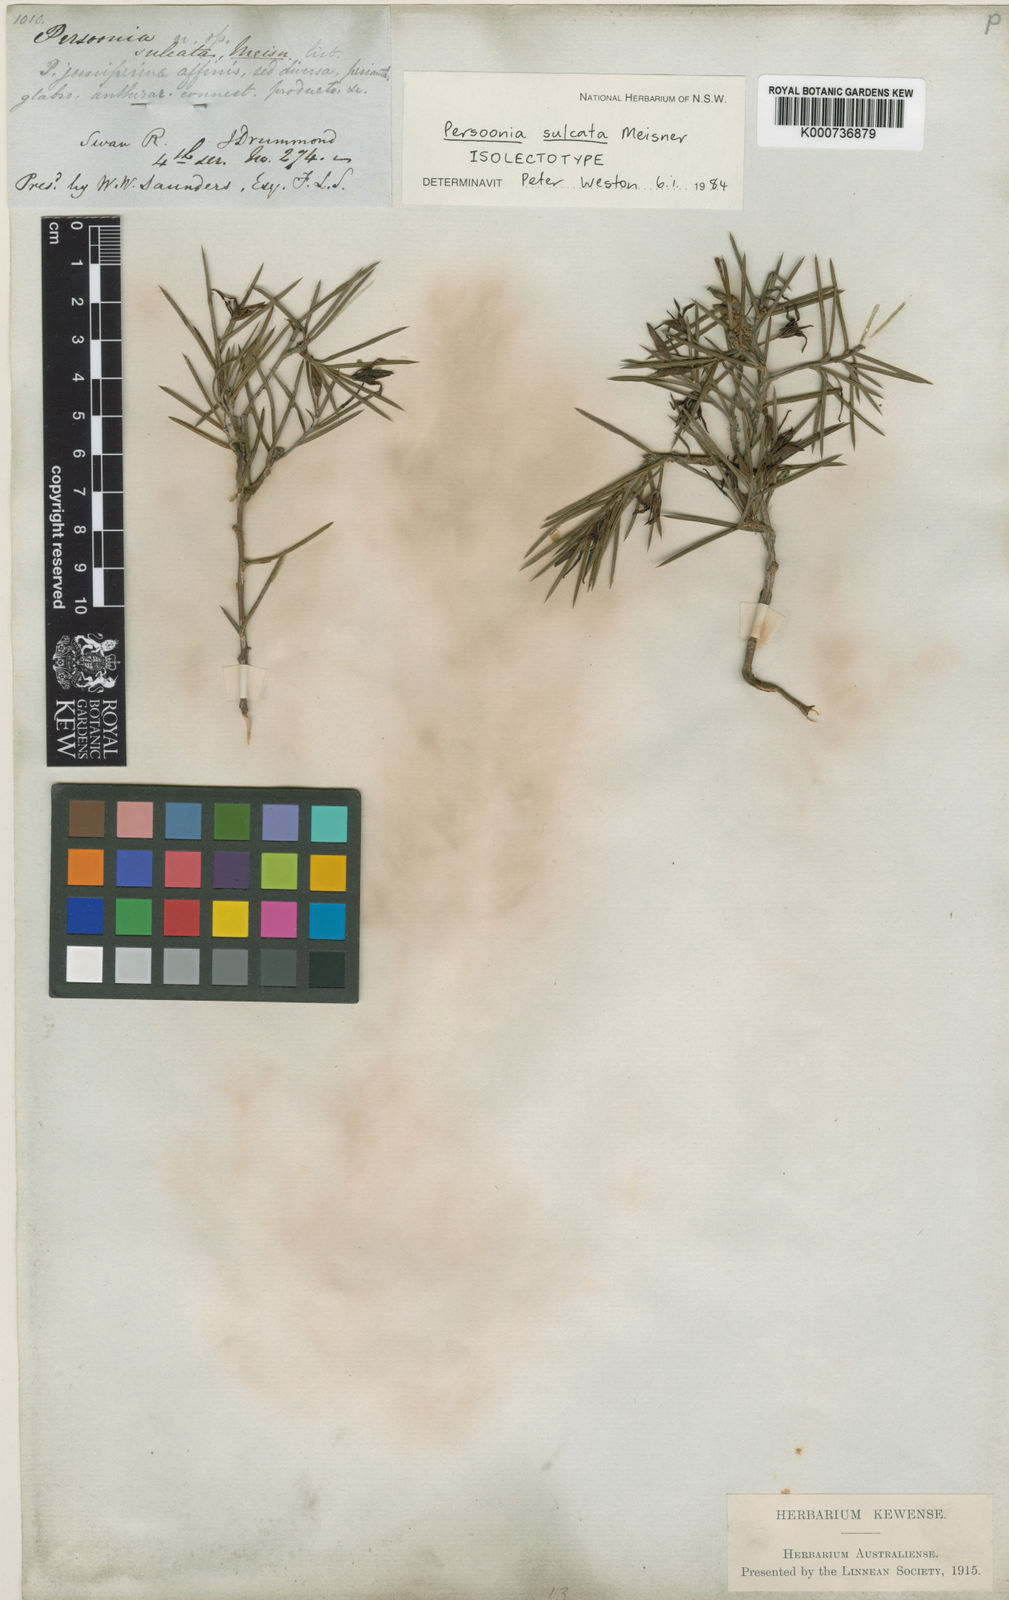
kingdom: Plantae
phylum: Tracheophyta
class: Magnoliopsida
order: Proteales
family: Proteaceae
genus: Persoonia
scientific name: Persoonia sulcata
